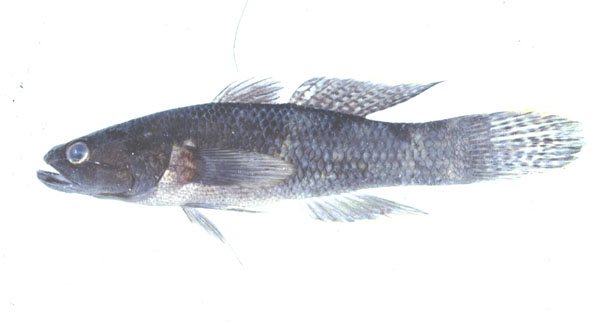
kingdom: Animalia
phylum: Chordata
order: Perciformes
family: Eleotridae
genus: Ophiocara
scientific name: Ophiocara porocephala
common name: Spangled gudgeon
